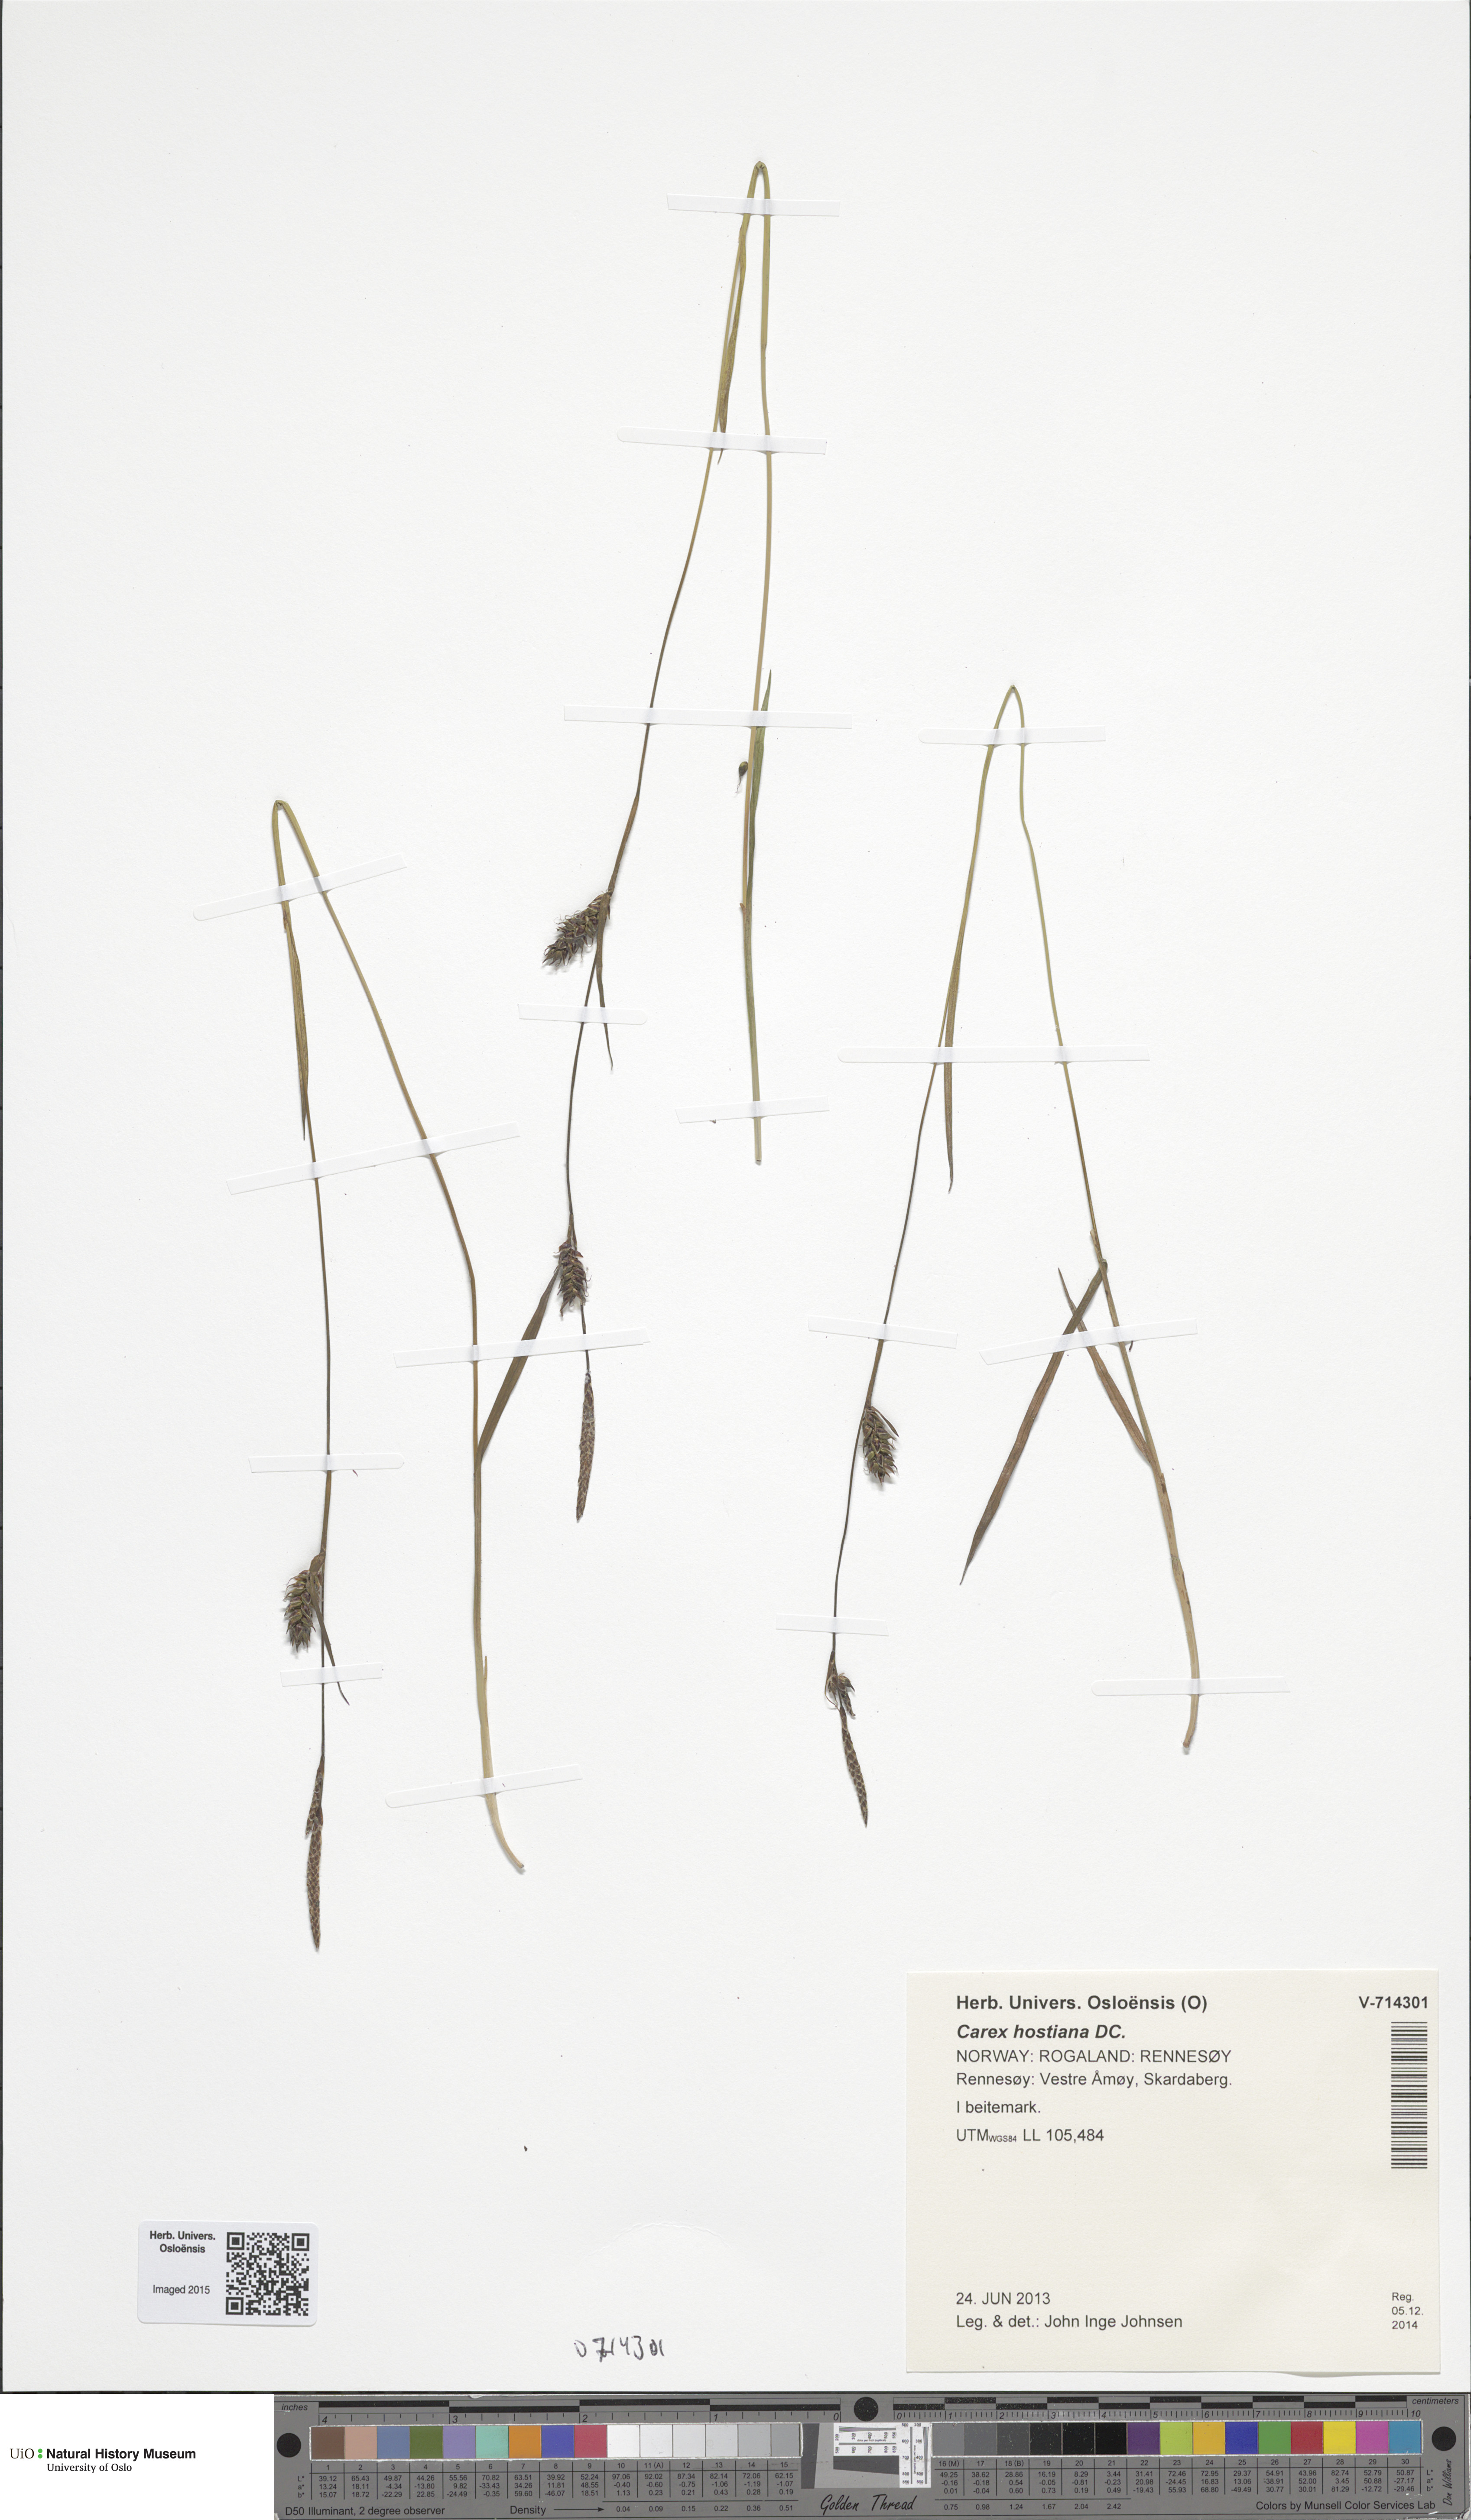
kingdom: Plantae
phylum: Tracheophyta
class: Liliopsida
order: Poales
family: Cyperaceae
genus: Carex
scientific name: Carex hostiana
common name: Tawny sedge
